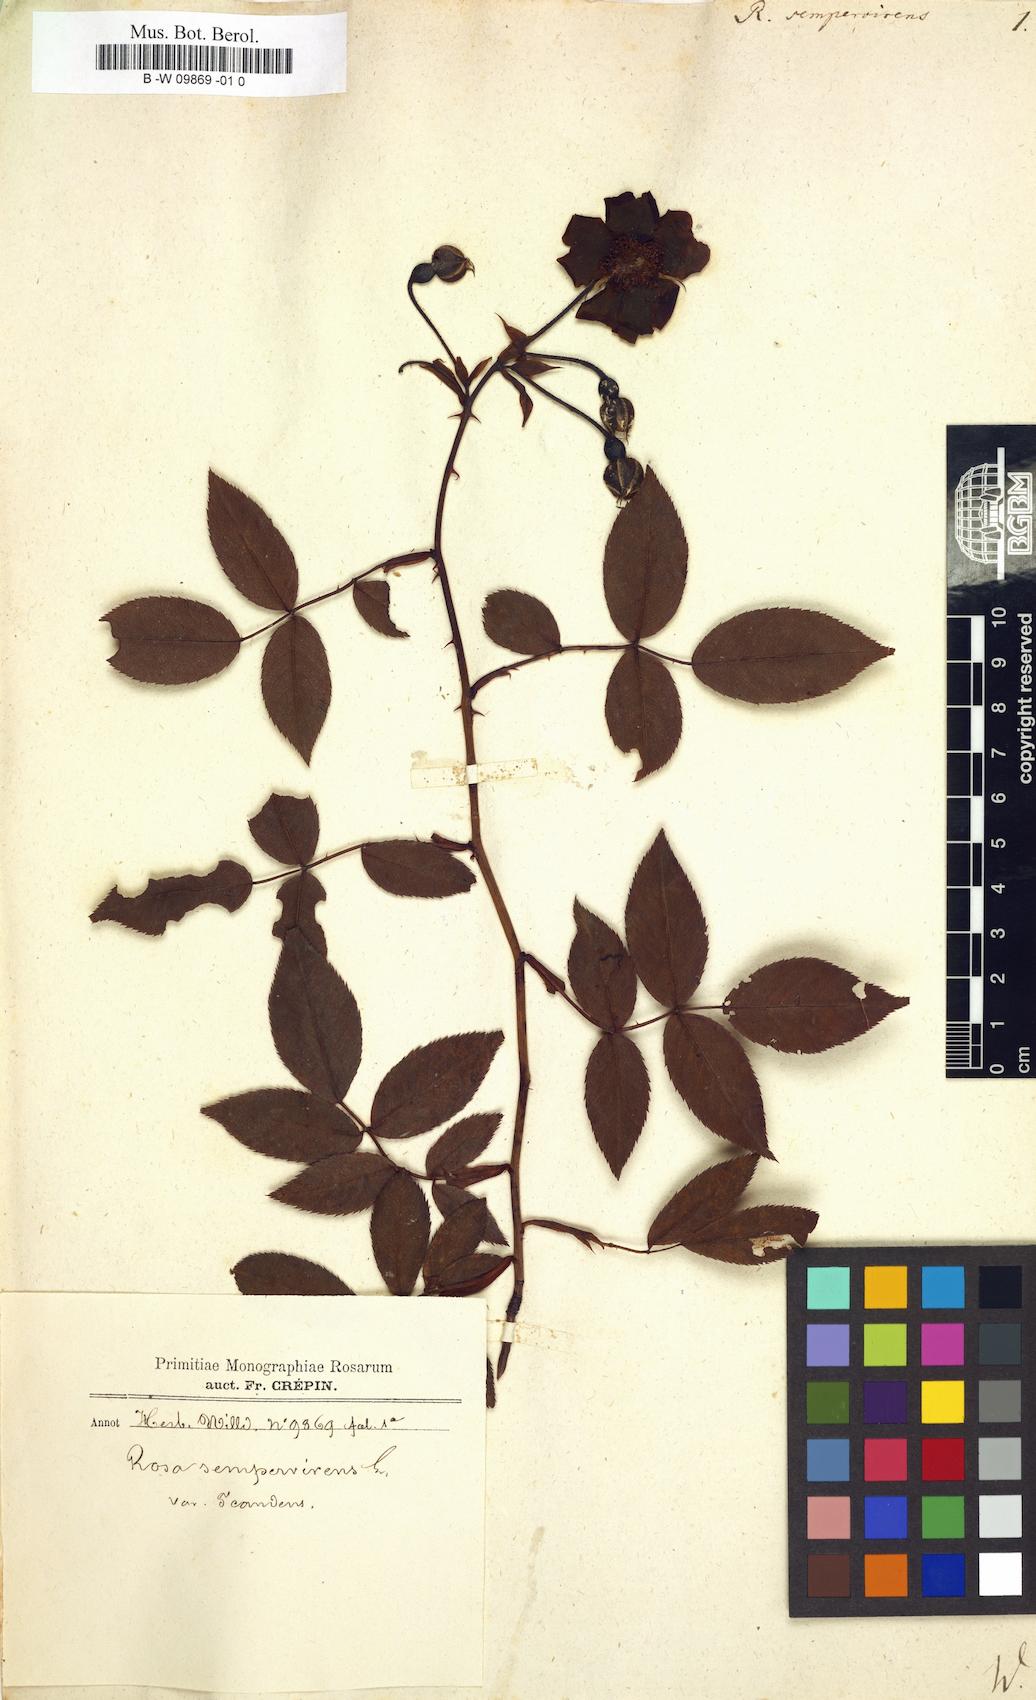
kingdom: Plantae
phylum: Tracheophyta
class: Magnoliopsida
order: Rosales
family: Rosaceae
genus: Rosa
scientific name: Rosa sempervirens
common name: Evergreen rose
